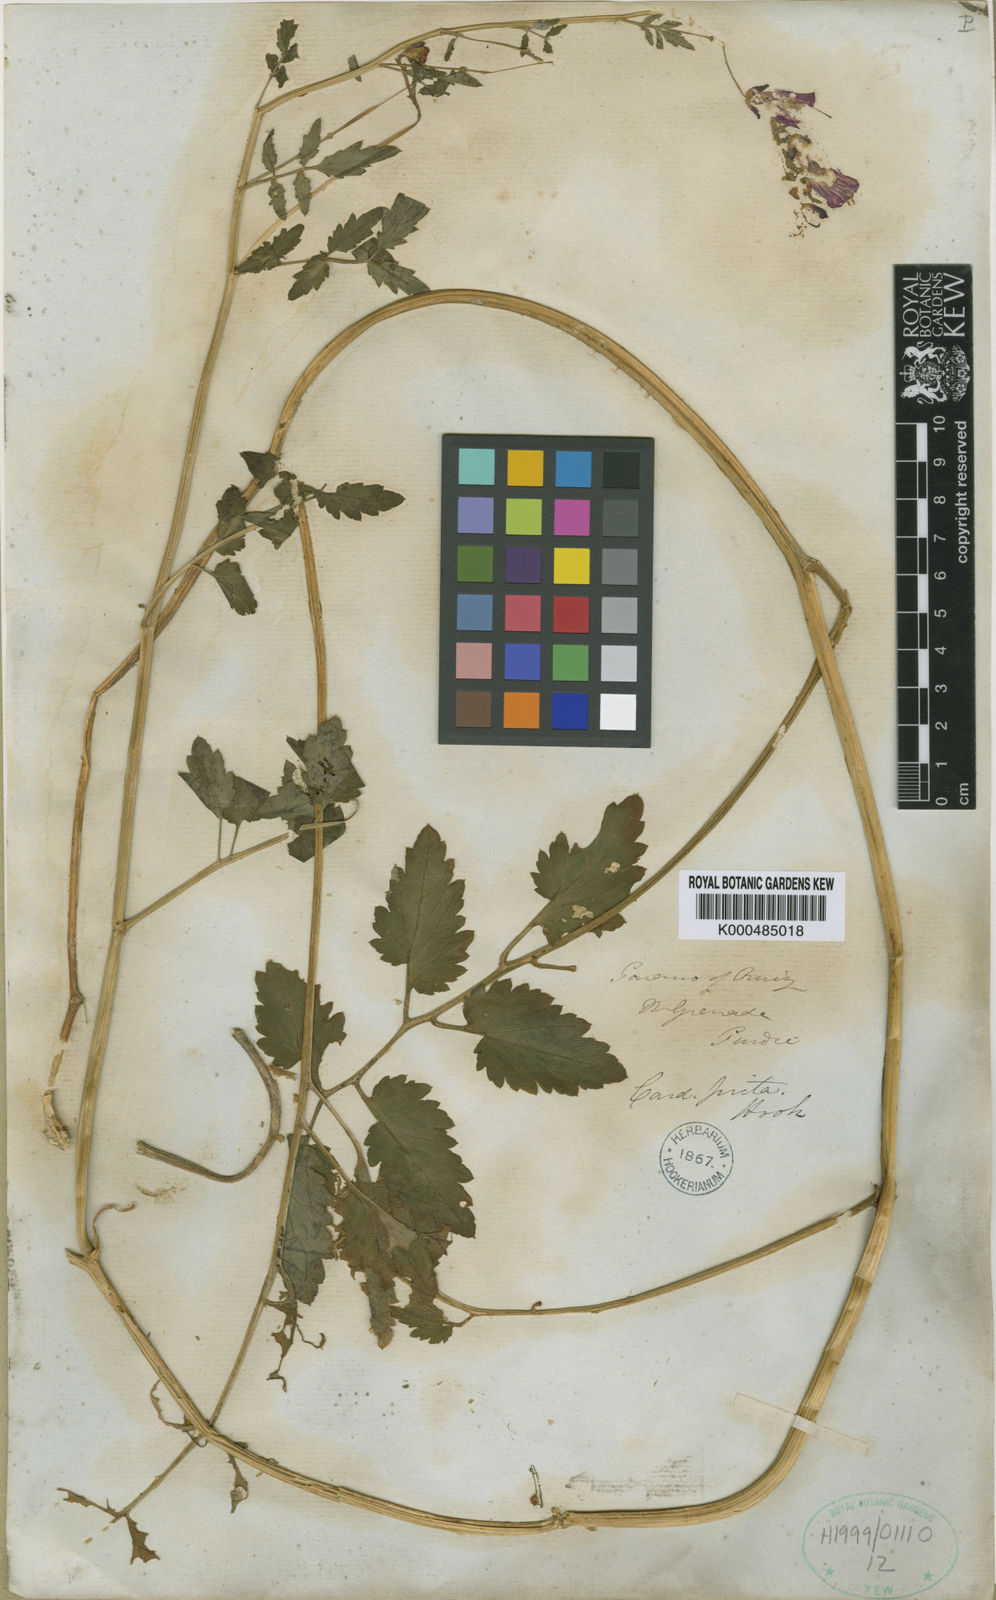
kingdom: Plantae
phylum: Tracheophyta
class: Magnoliopsida
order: Brassicales
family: Brassicaceae
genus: Cardamine
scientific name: Cardamine picta
